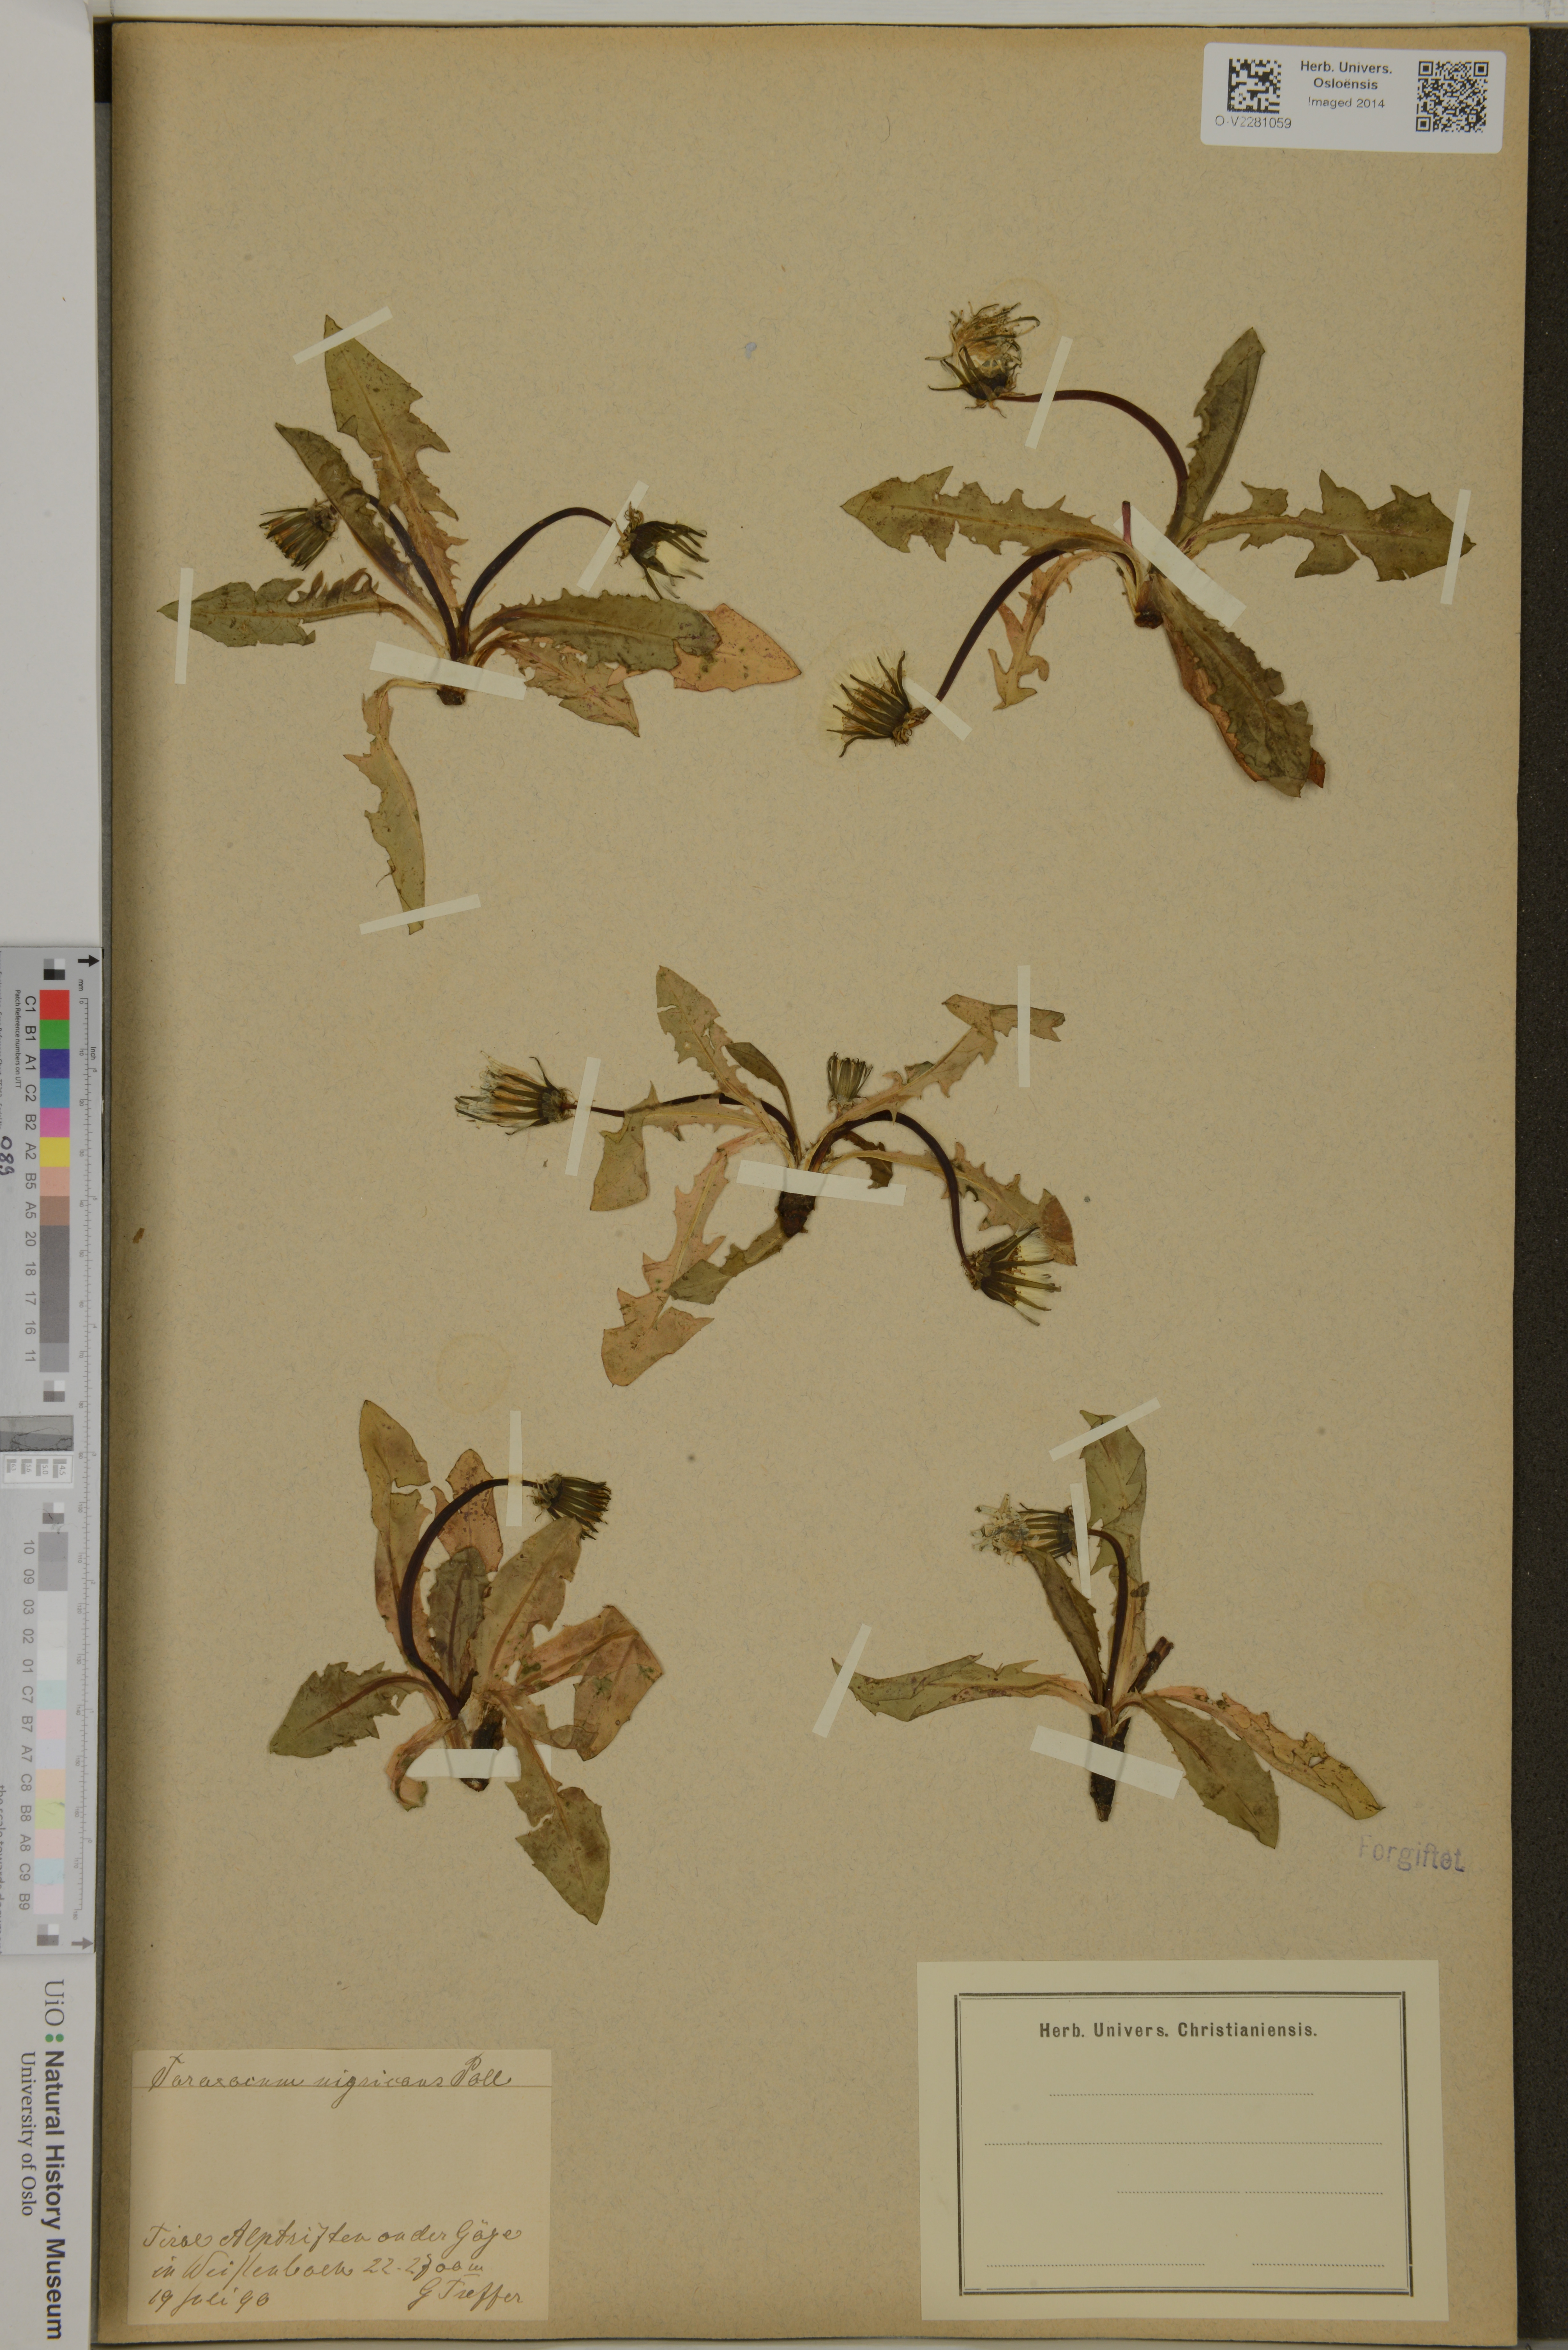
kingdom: Plantae
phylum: Tracheophyta
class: Magnoliopsida
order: Asterales
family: Asteraceae
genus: Taraxacum
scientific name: Taraxacum nigricans
